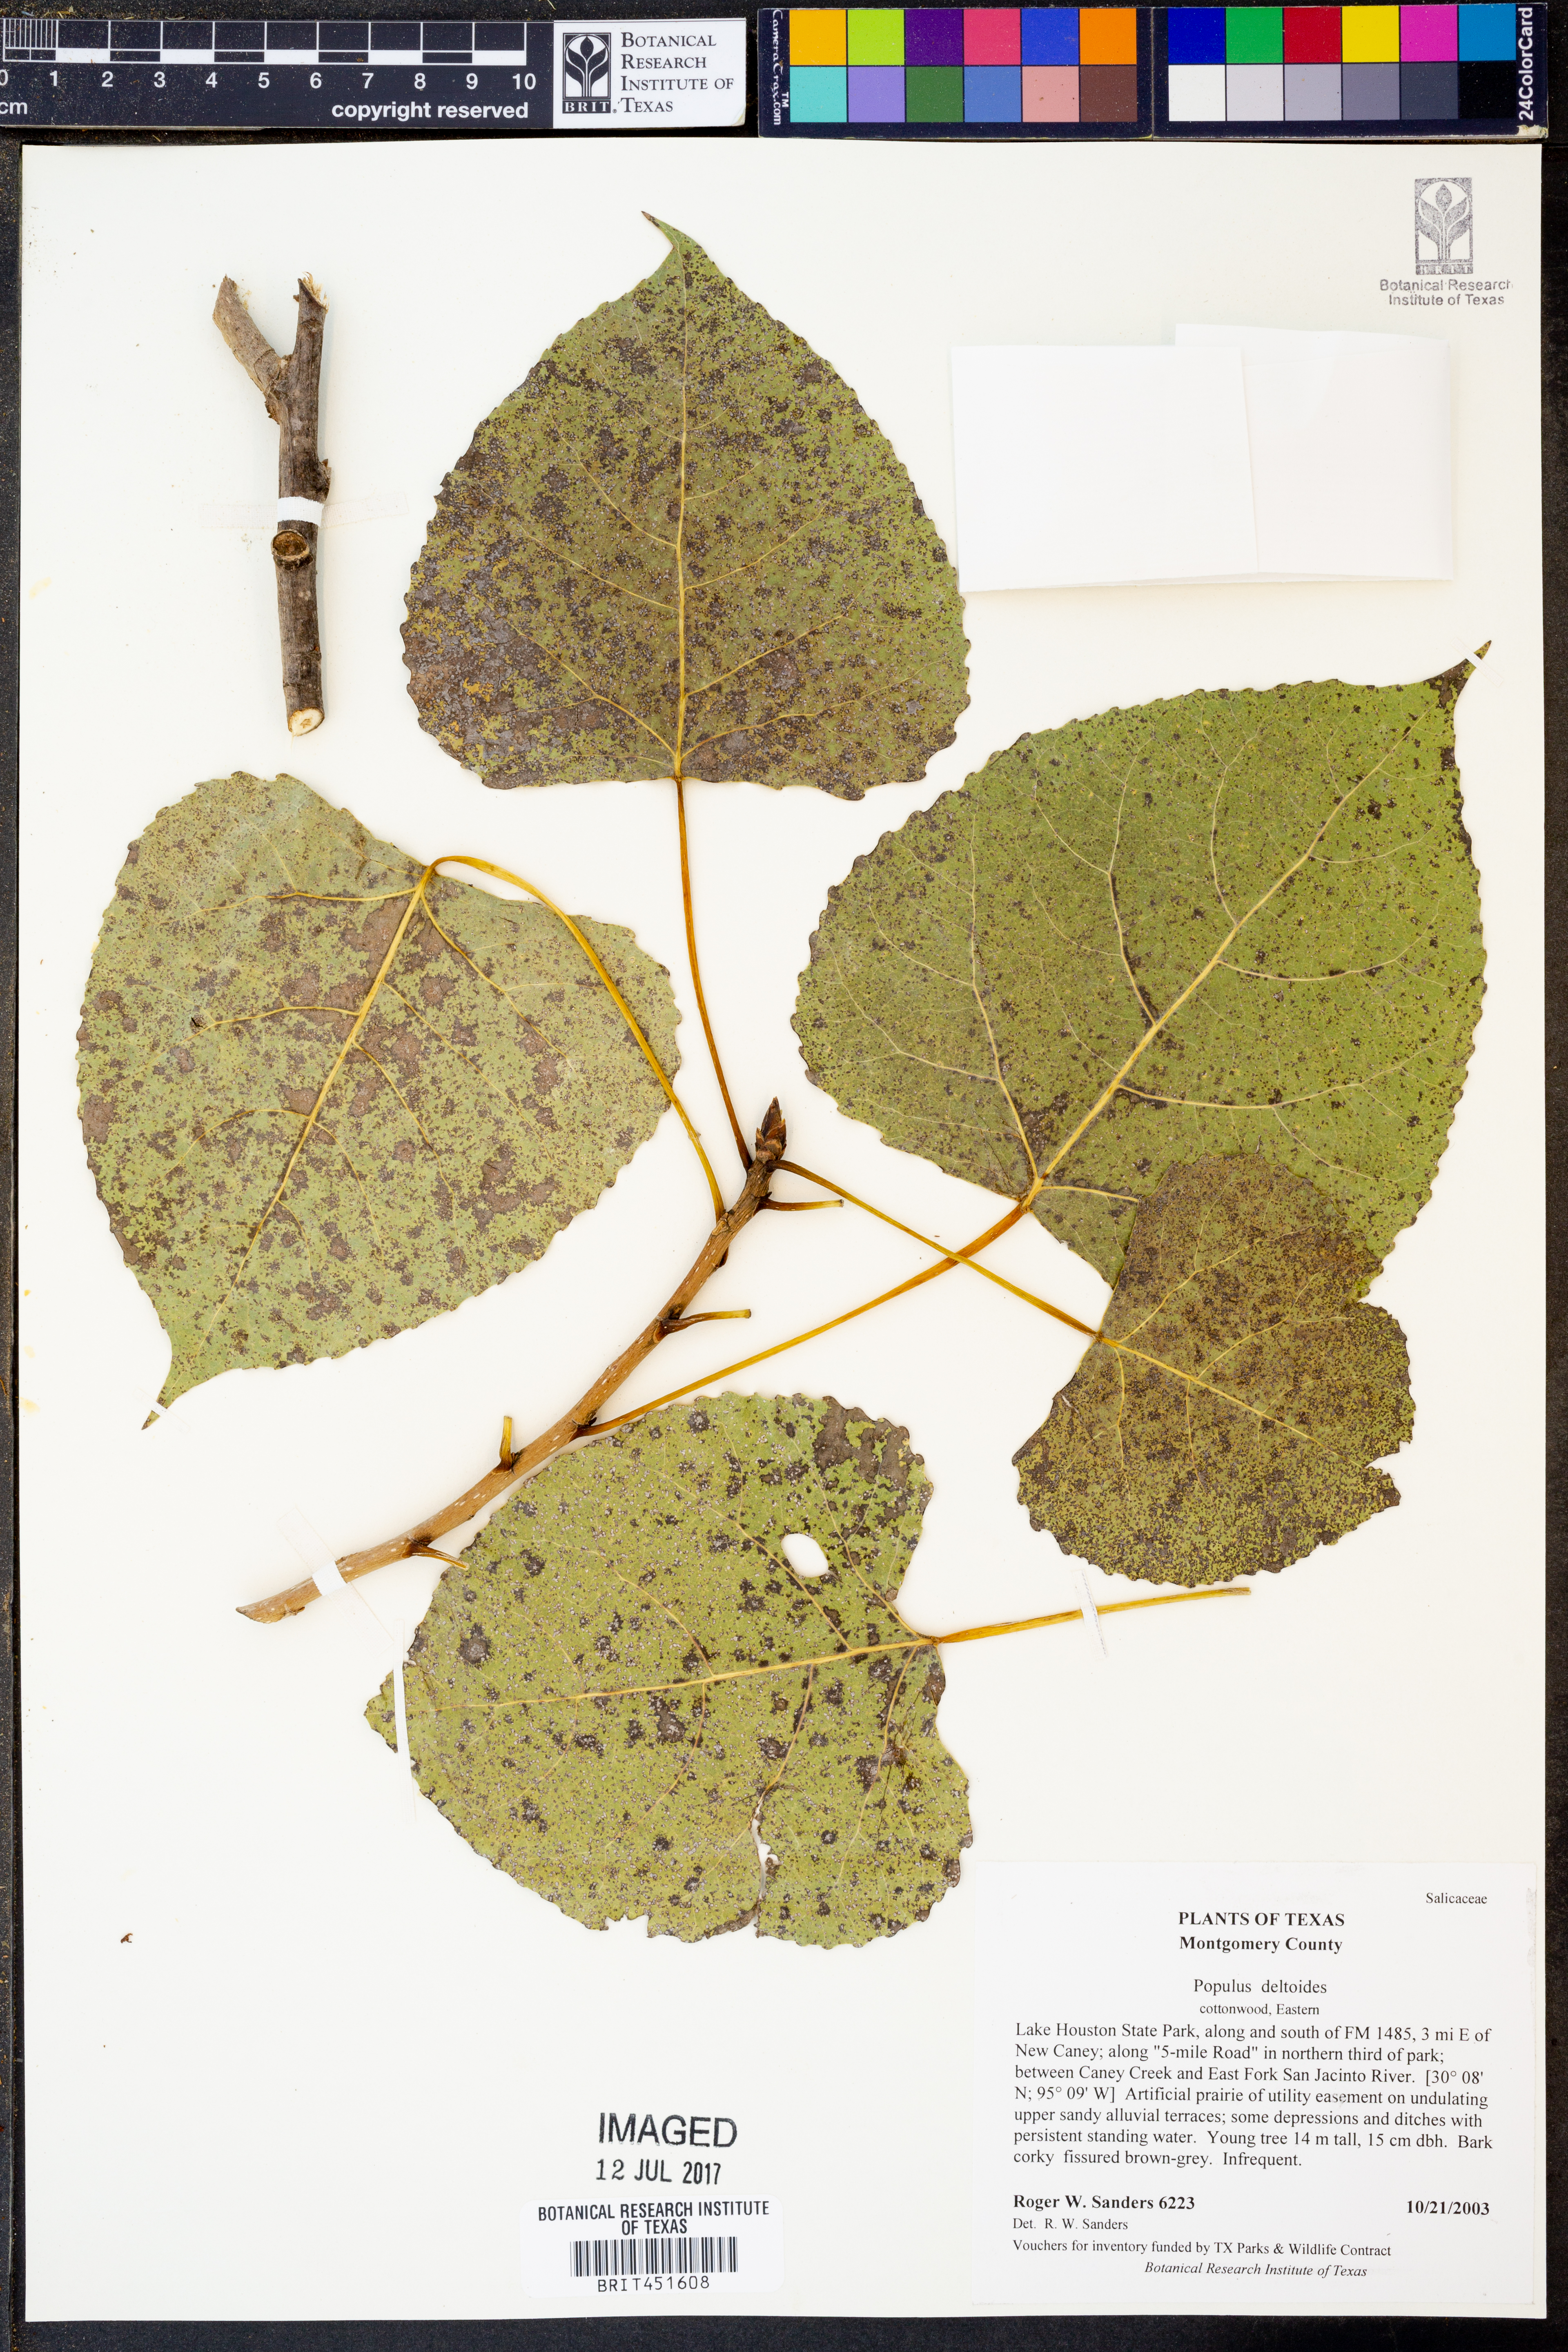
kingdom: Plantae
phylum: Tracheophyta
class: Magnoliopsida
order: Malpighiales
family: Salicaceae
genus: Populus
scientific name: Populus deltoides
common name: Eastern cottonwood
